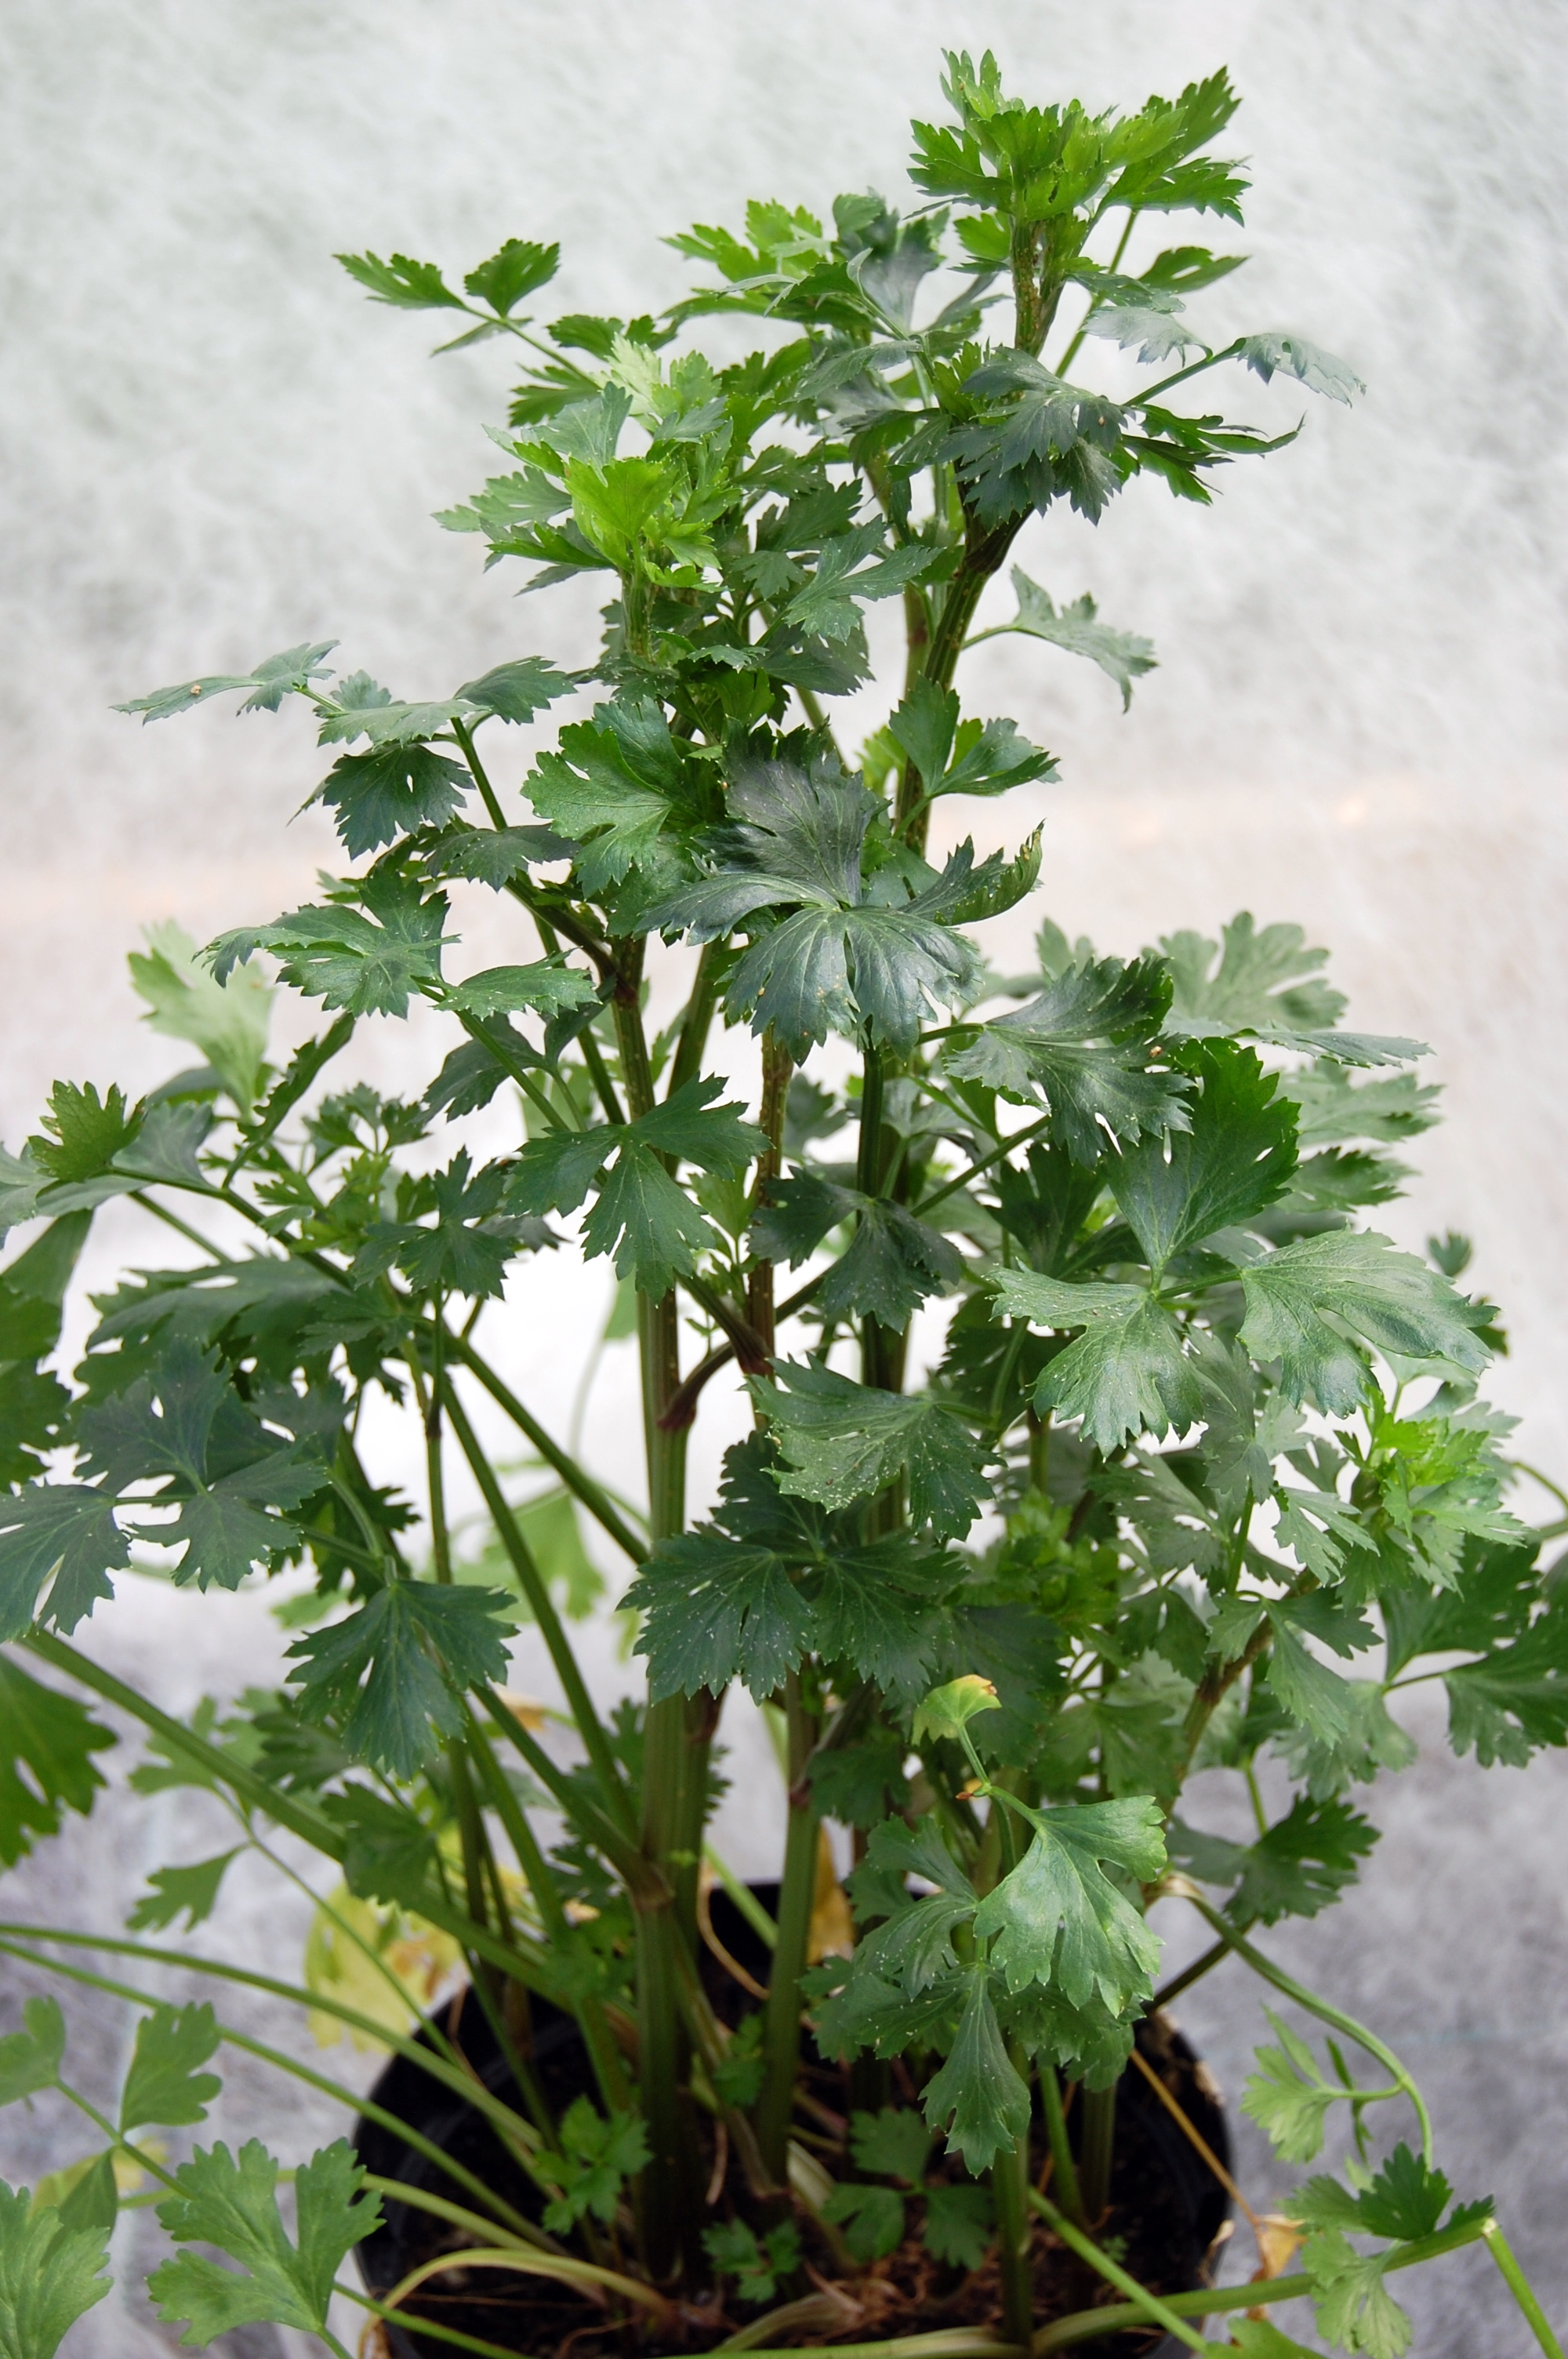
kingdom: Plantae
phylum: Tracheophyta
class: Magnoliopsida
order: Apiales
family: Apiaceae
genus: Apium
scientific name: Apium graveolens
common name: Wild celery
